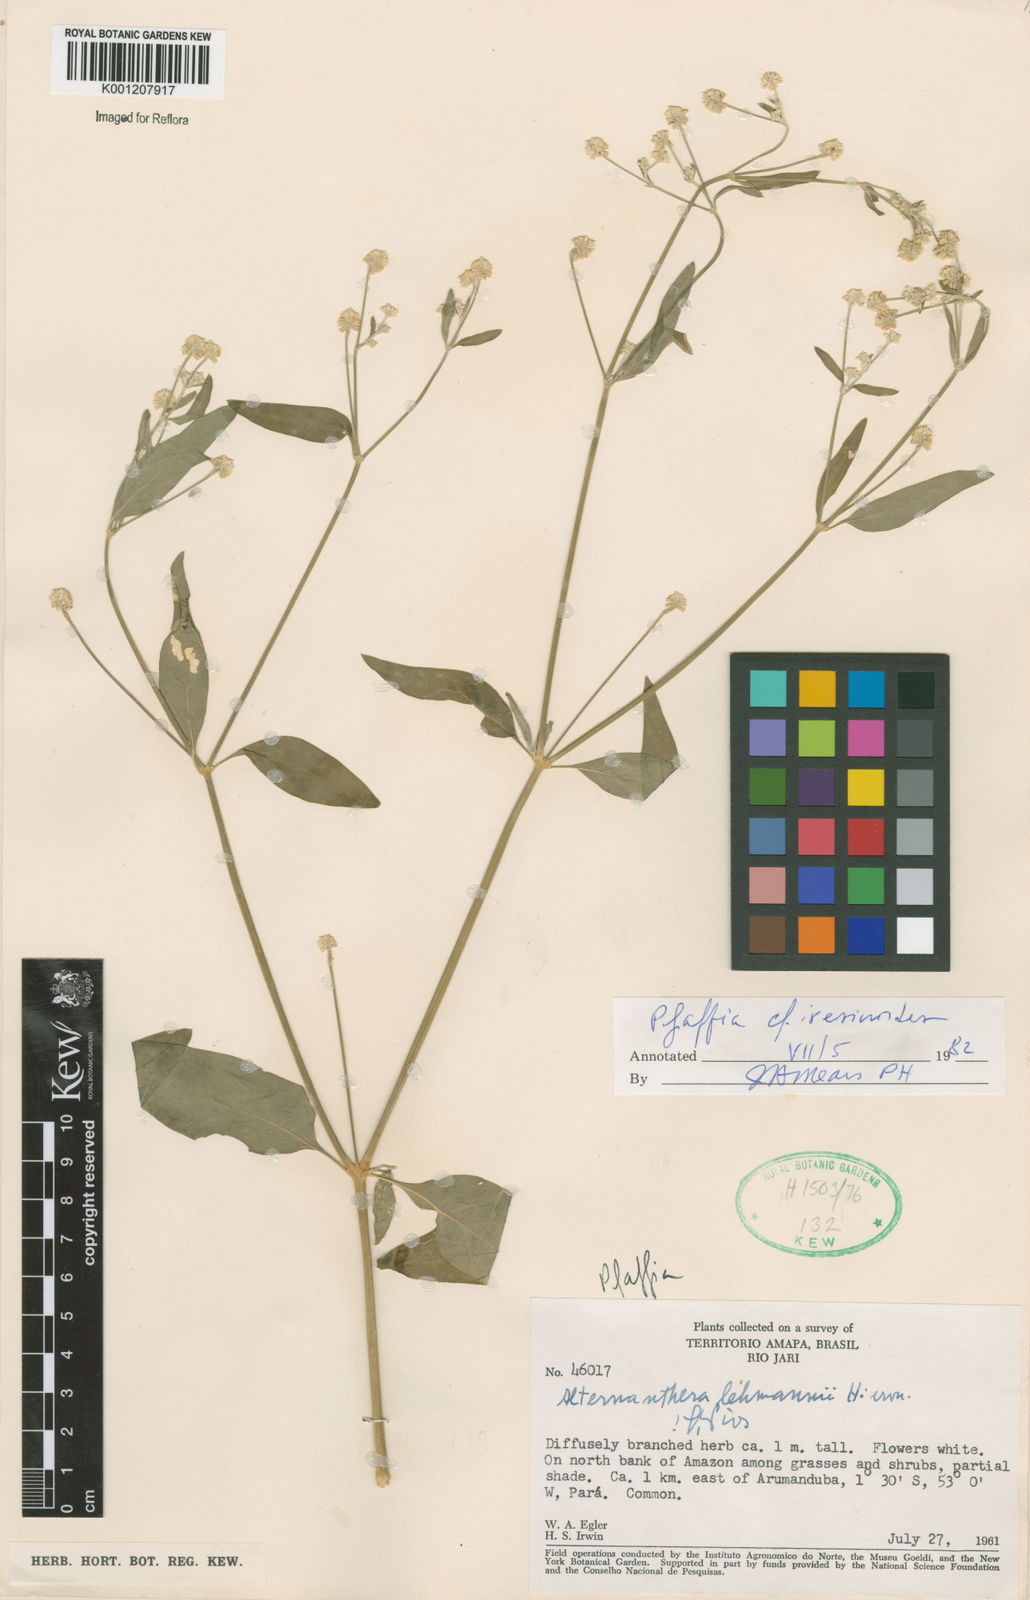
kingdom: Plantae
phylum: Tracheophyta
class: Magnoliopsida
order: Caryophyllales
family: Amaranthaceae
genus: Pfaffia
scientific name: Pfaffia iresinoides
